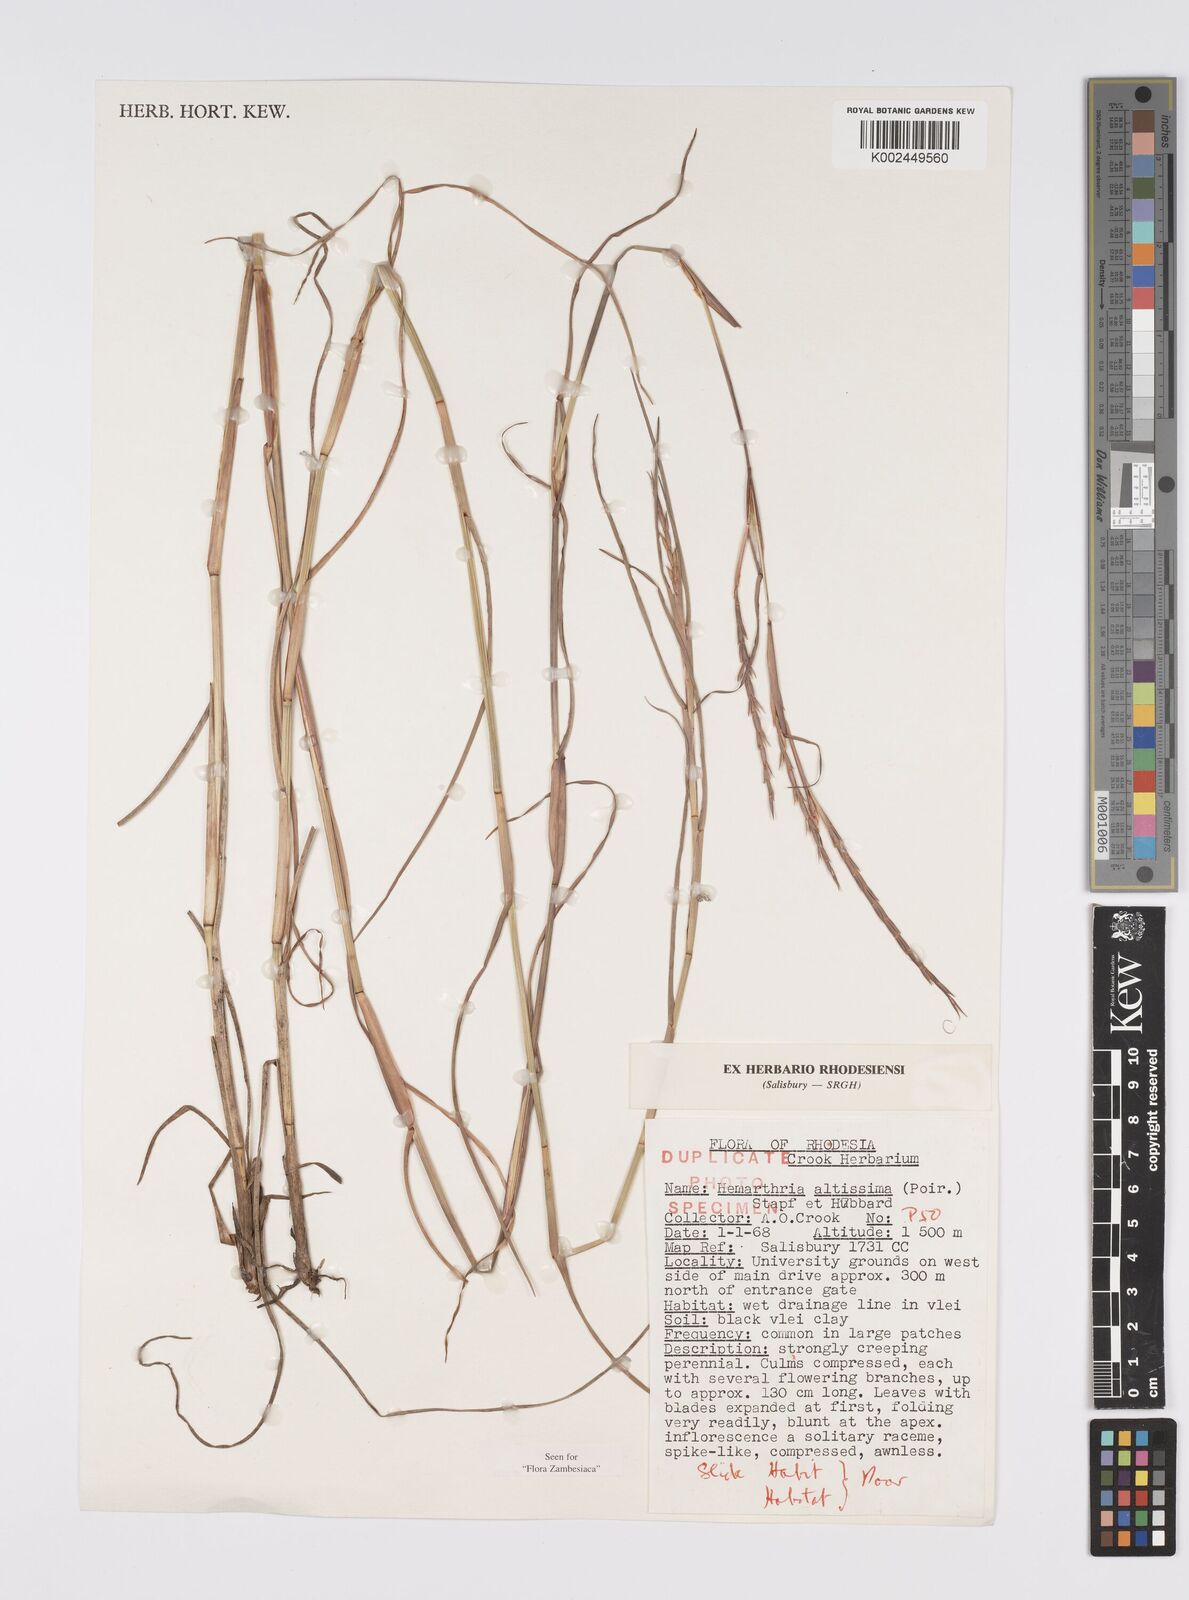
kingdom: Plantae
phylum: Tracheophyta
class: Liliopsida
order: Poales
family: Poaceae
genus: Hemarthria
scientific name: Hemarthria altissima
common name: African jointgrass
